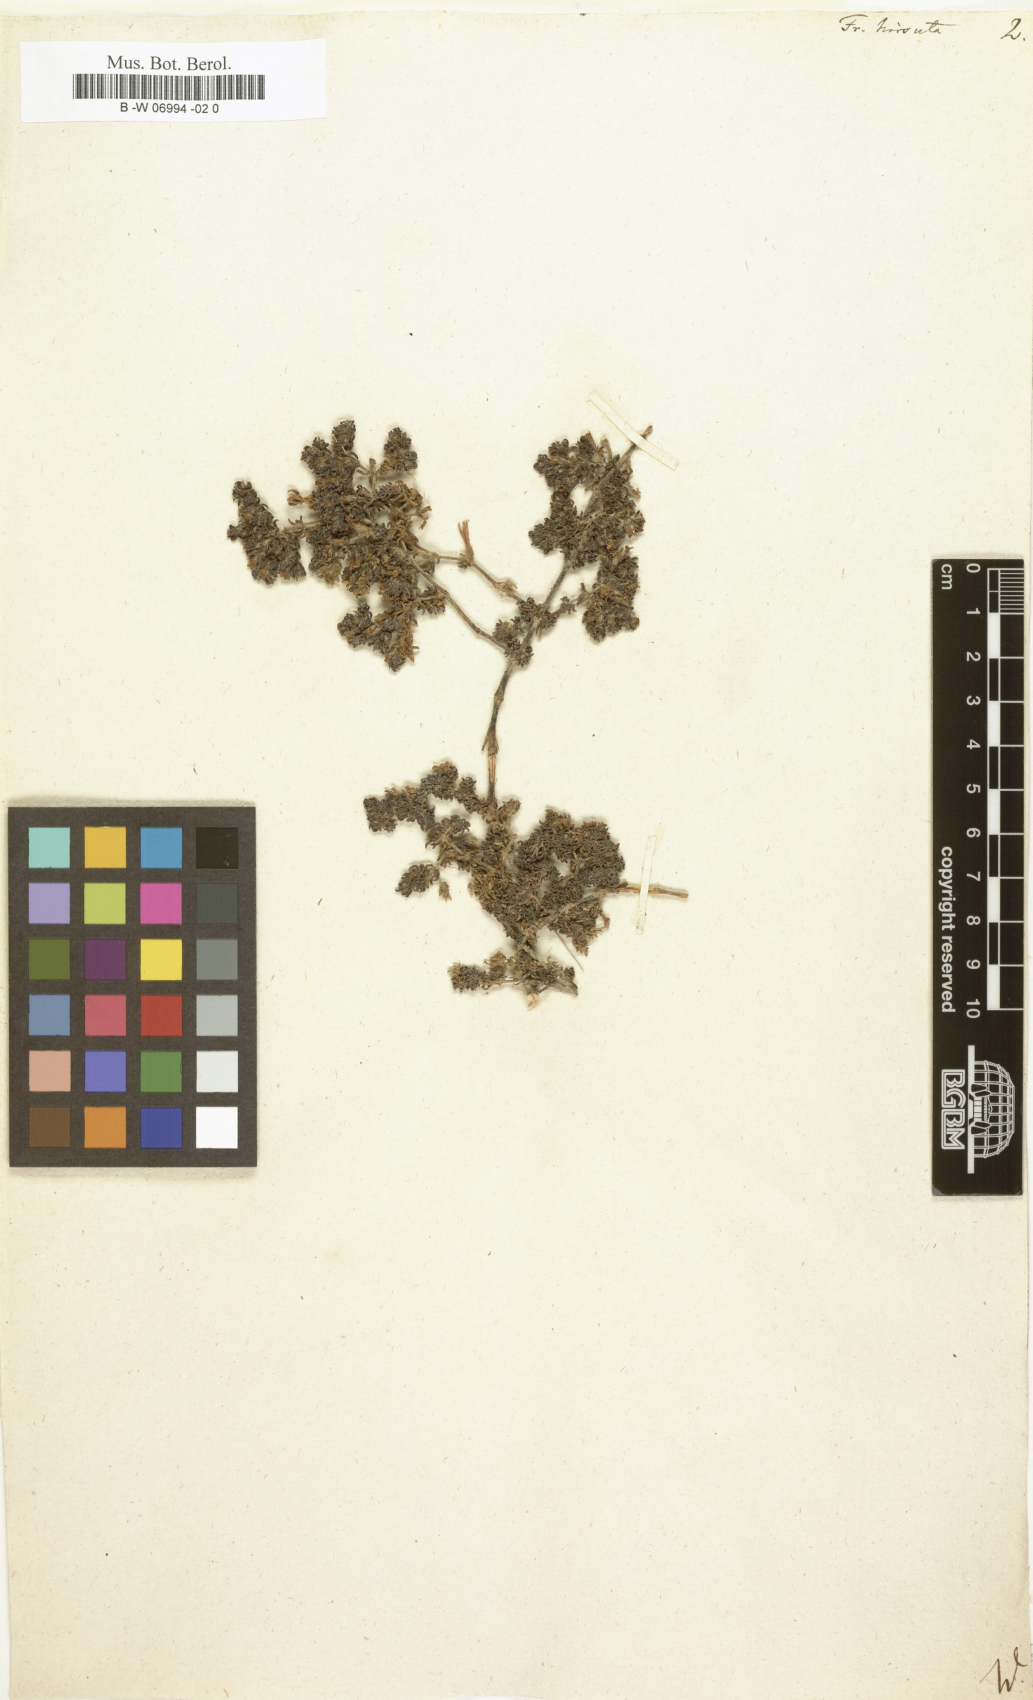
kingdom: Plantae
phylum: Tracheophyta
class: Magnoliopsida
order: Caryophyllales
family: Frankeniaceae
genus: Frankenia
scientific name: Frankenia hirsuta
